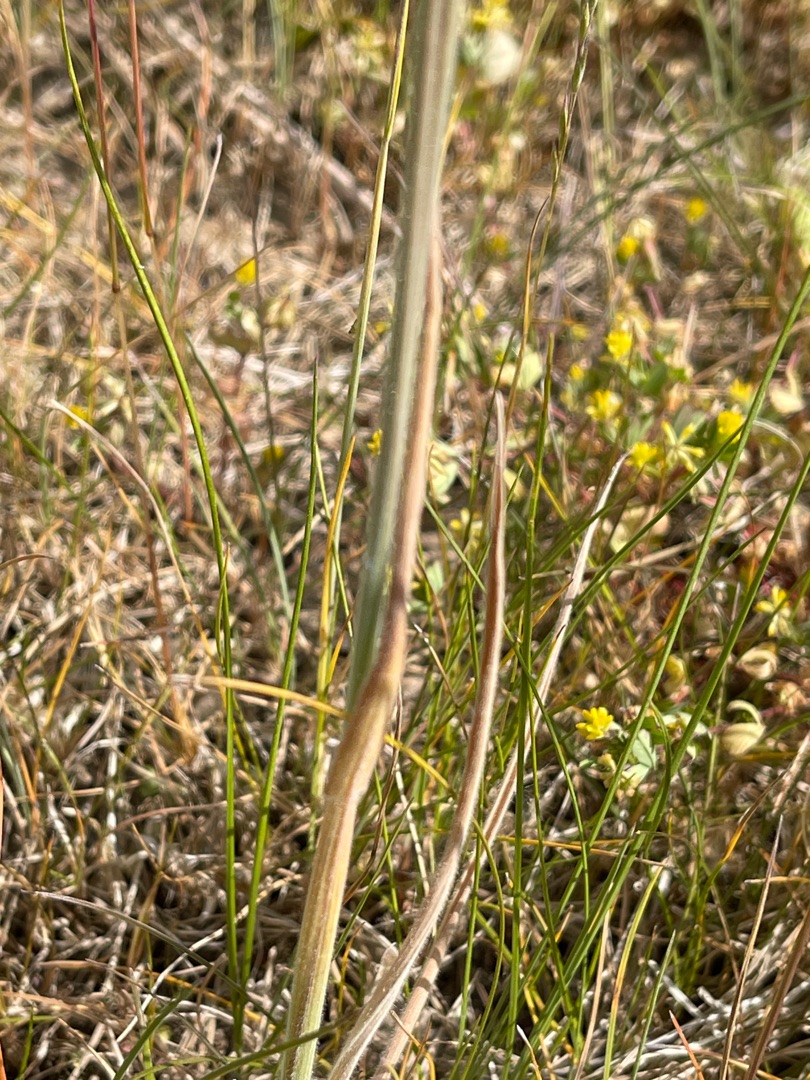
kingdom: Plantae
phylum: Tracheophyta
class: Liliopsida
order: Poales
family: Poaceae
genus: Holcus
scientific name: Holcus lanatus
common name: Fløjlsgræs
